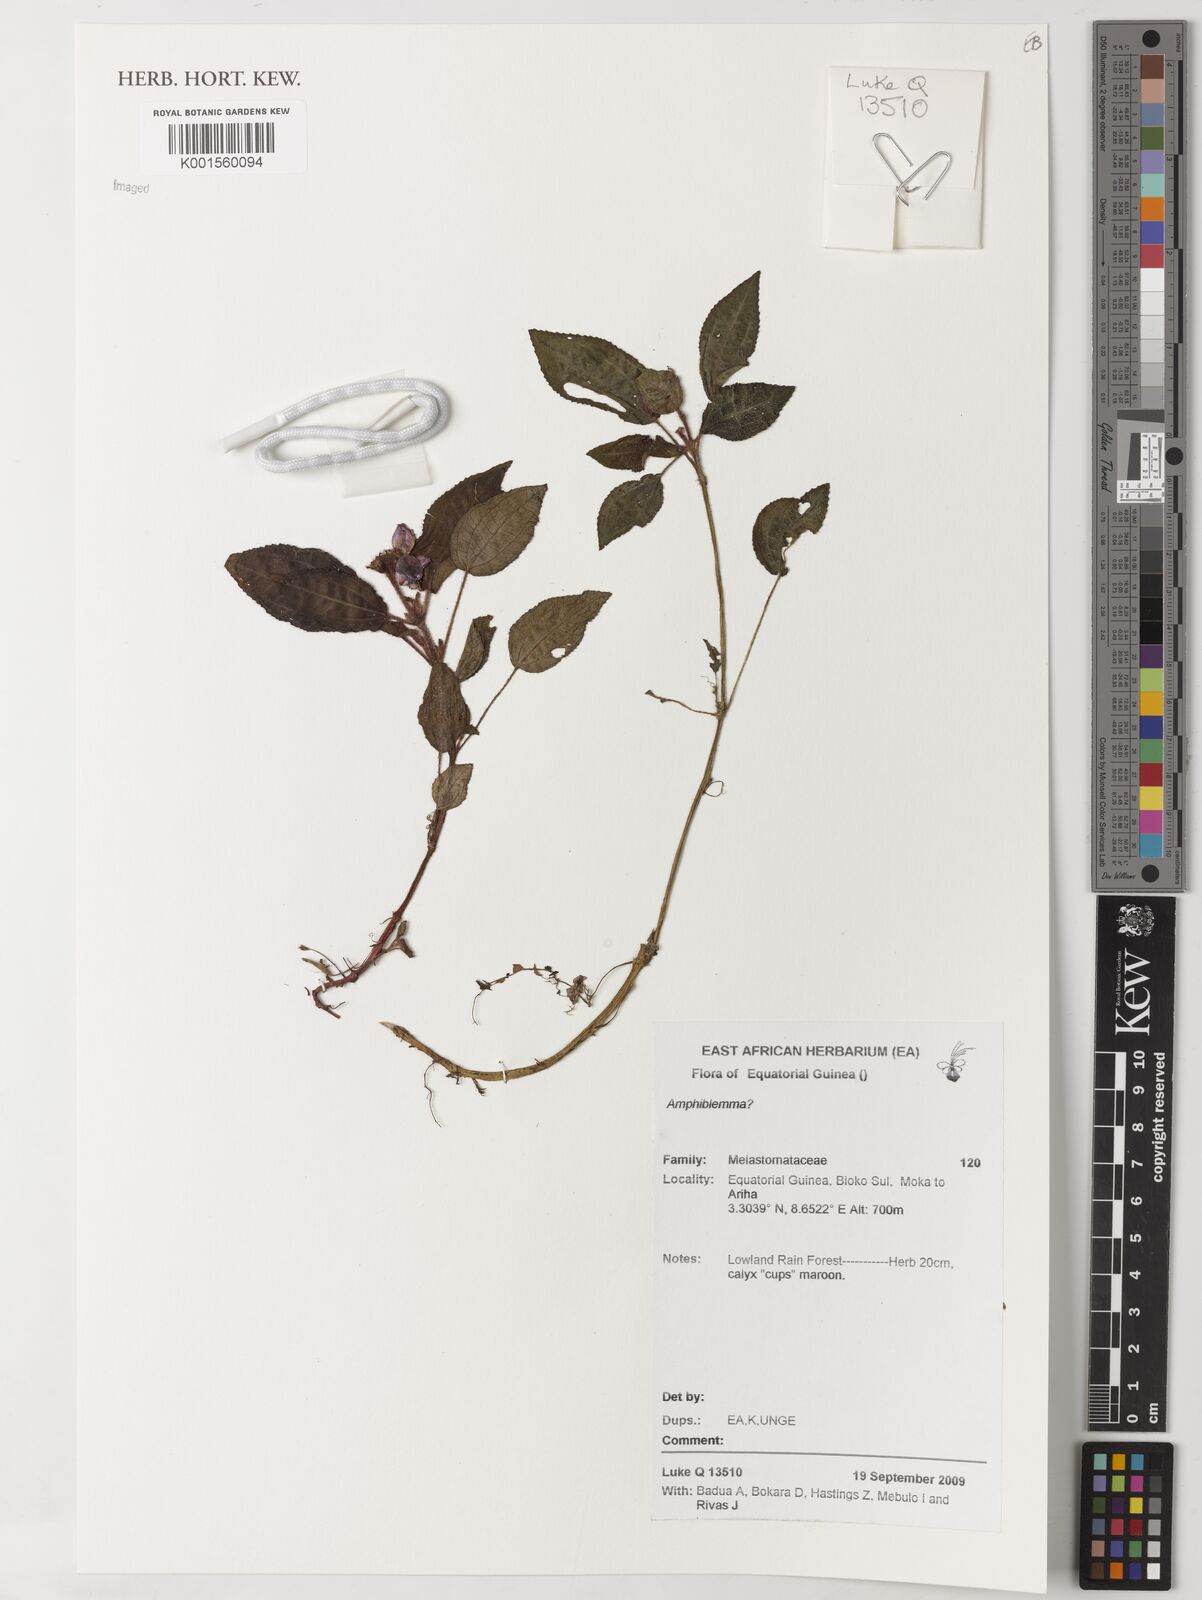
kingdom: Plantae
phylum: Tracheophyta
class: Magnoliopsida
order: Myrtales
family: Melastomataceae
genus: Amphiblemma
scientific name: Amphiblemma
